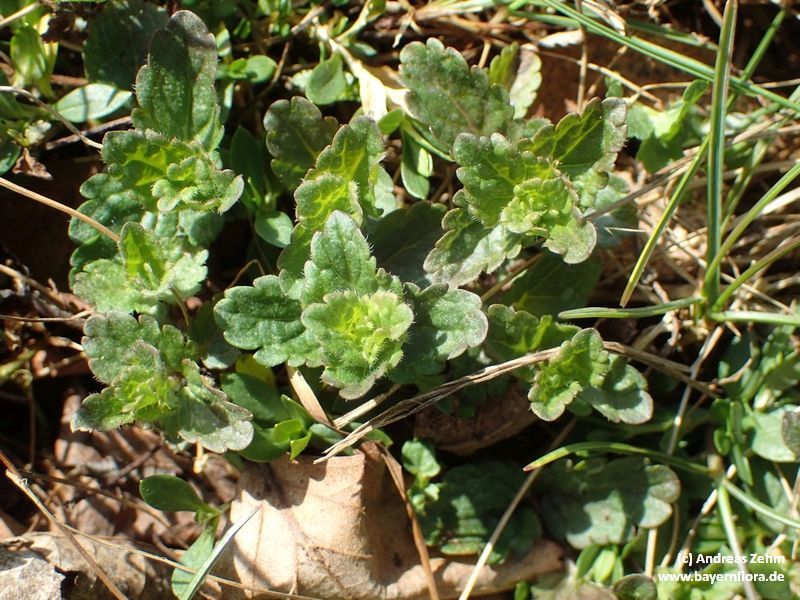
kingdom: Plantae
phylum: Tracheophyta
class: Magnoliopsida
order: Lamiales
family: Plantaginaceae
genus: Veronica
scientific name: Veronica chamaedrys
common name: Germander speedwell
